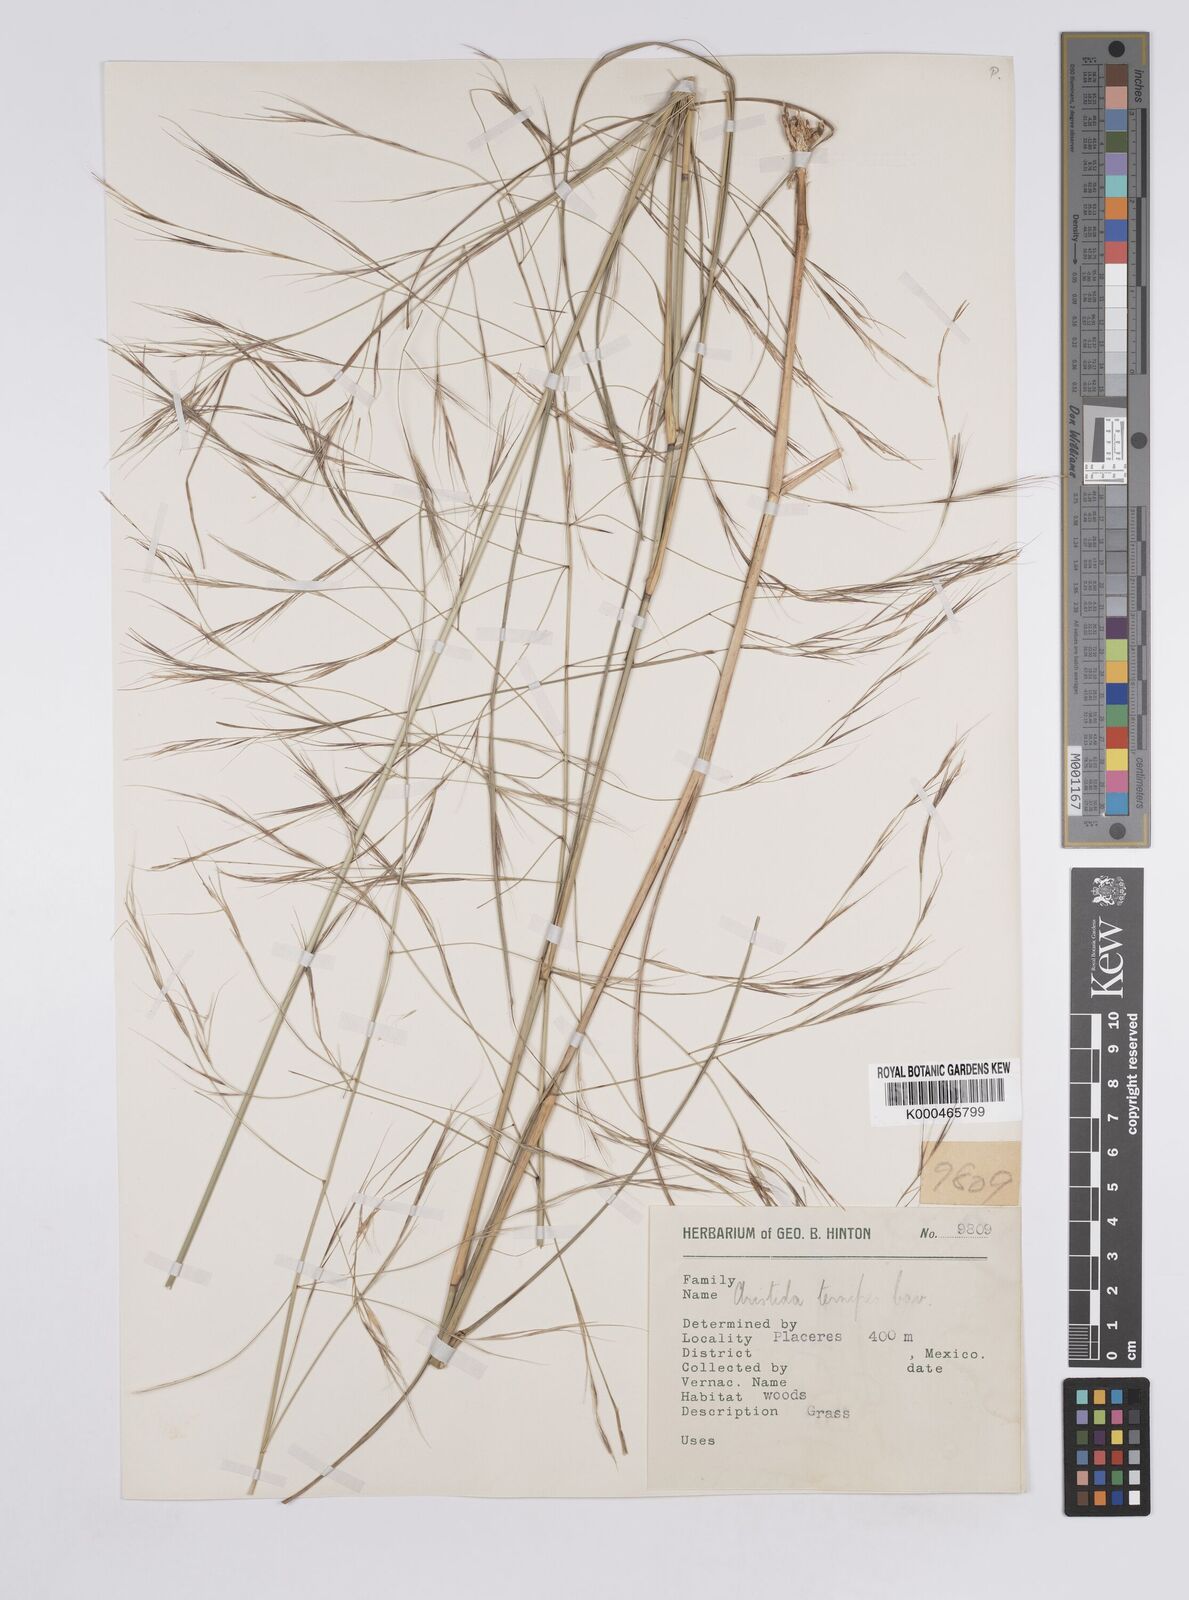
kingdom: Plantae
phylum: Tracheophyta
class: Liliopsida
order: Poales
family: Poaceae
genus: Aristida
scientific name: Aristida ternipes
